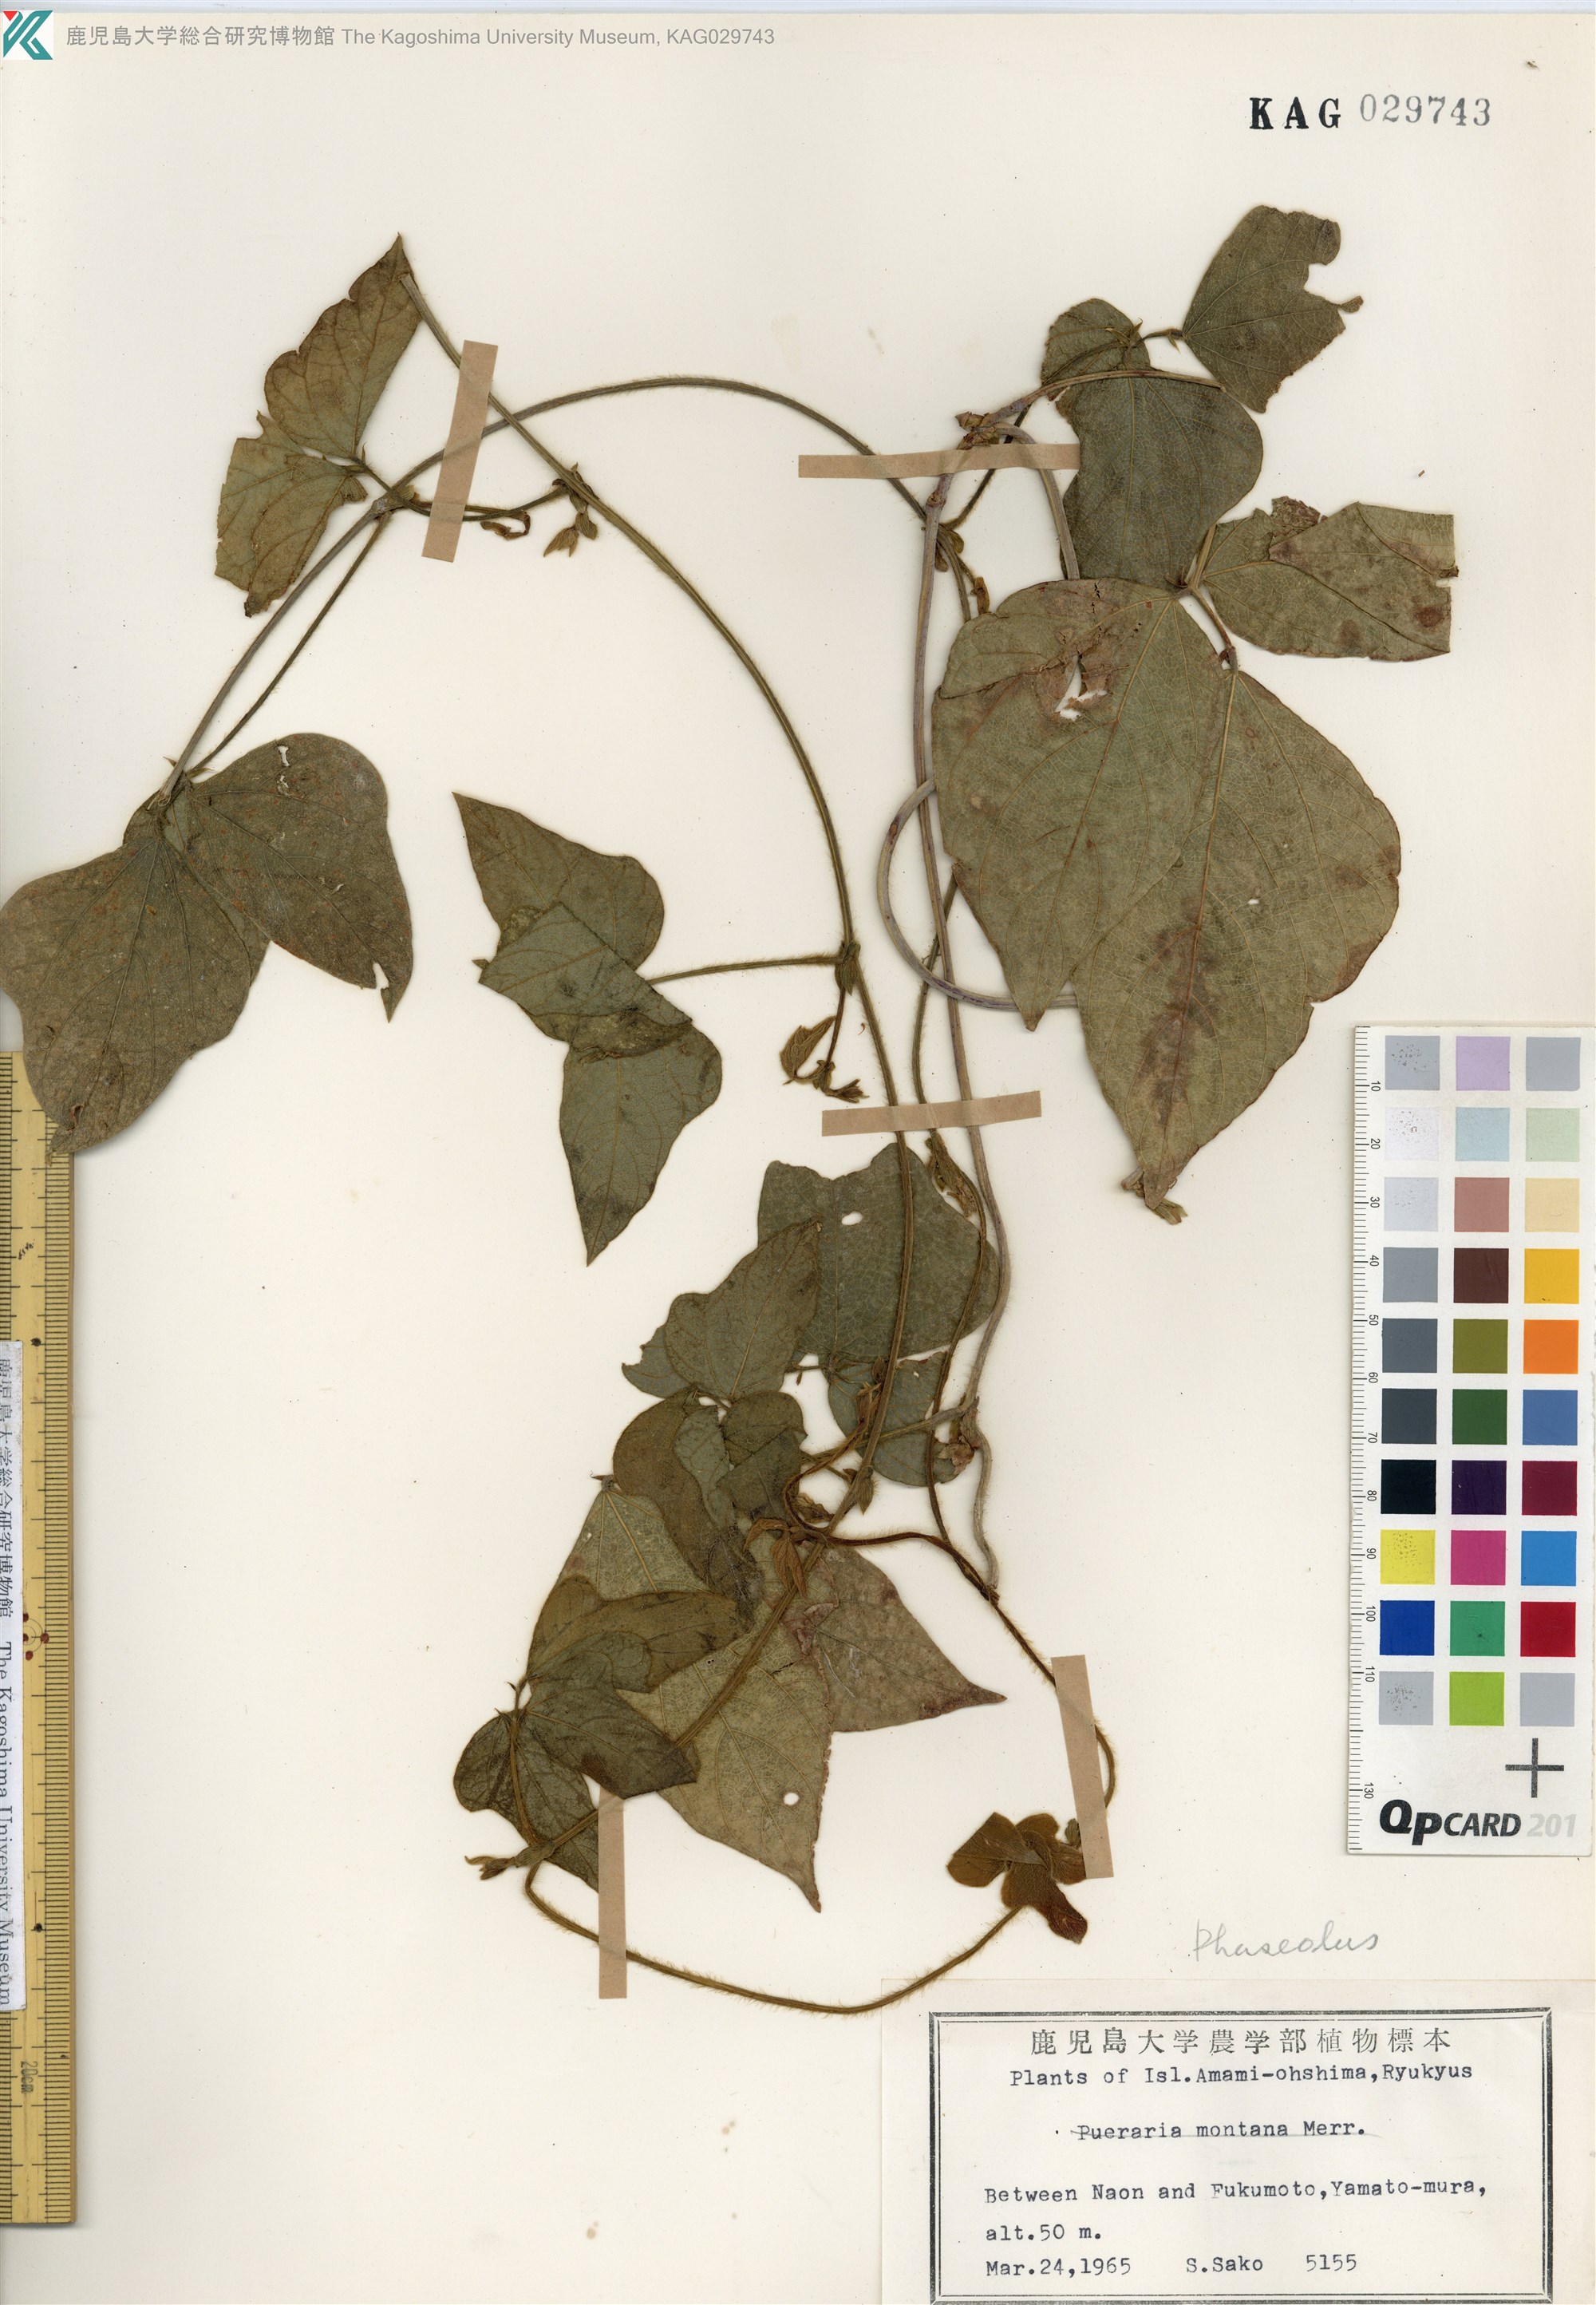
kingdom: Plantae
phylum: Tracheophyta
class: Magnoliopsida
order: Fabales
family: Fabaceae
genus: Vigna
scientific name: Vigna reflexopilosa
